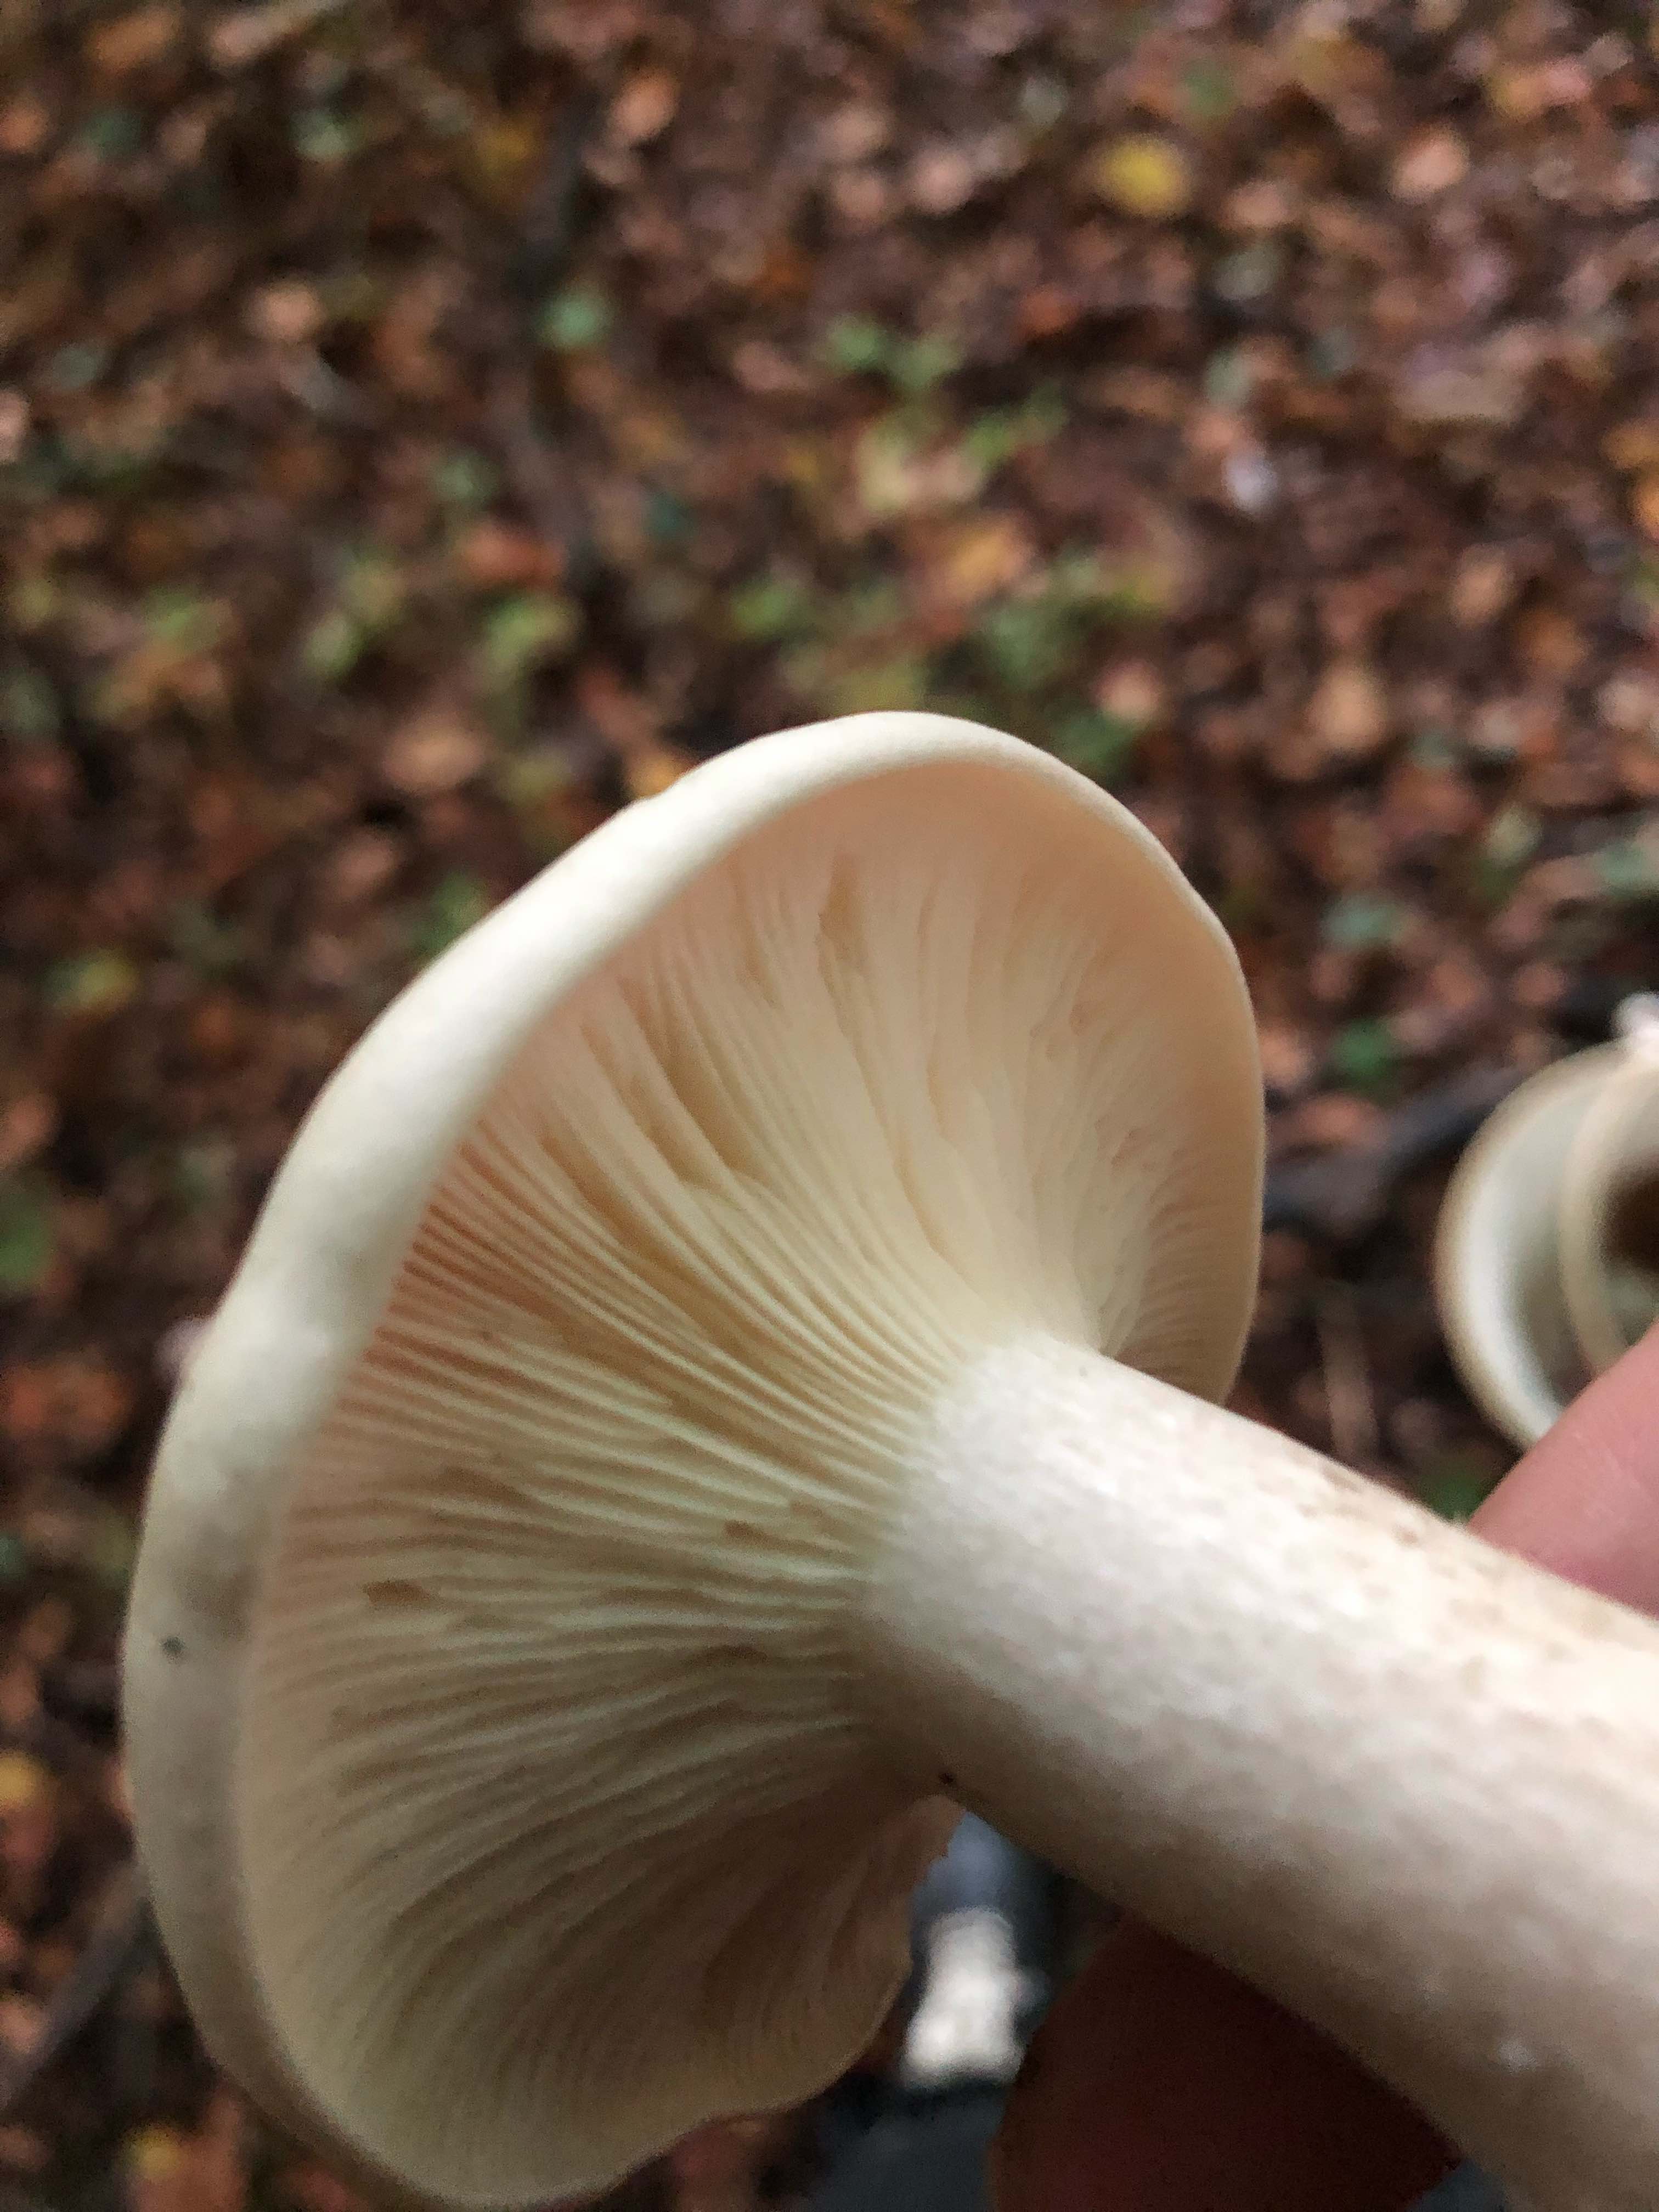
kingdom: Fungi
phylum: Basidiomycota
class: Agaricomycetes
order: Agaricales
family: Tricholomataceae
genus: Clitocybe
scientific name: Clitocybe nebularis
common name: tåge-tragthat
